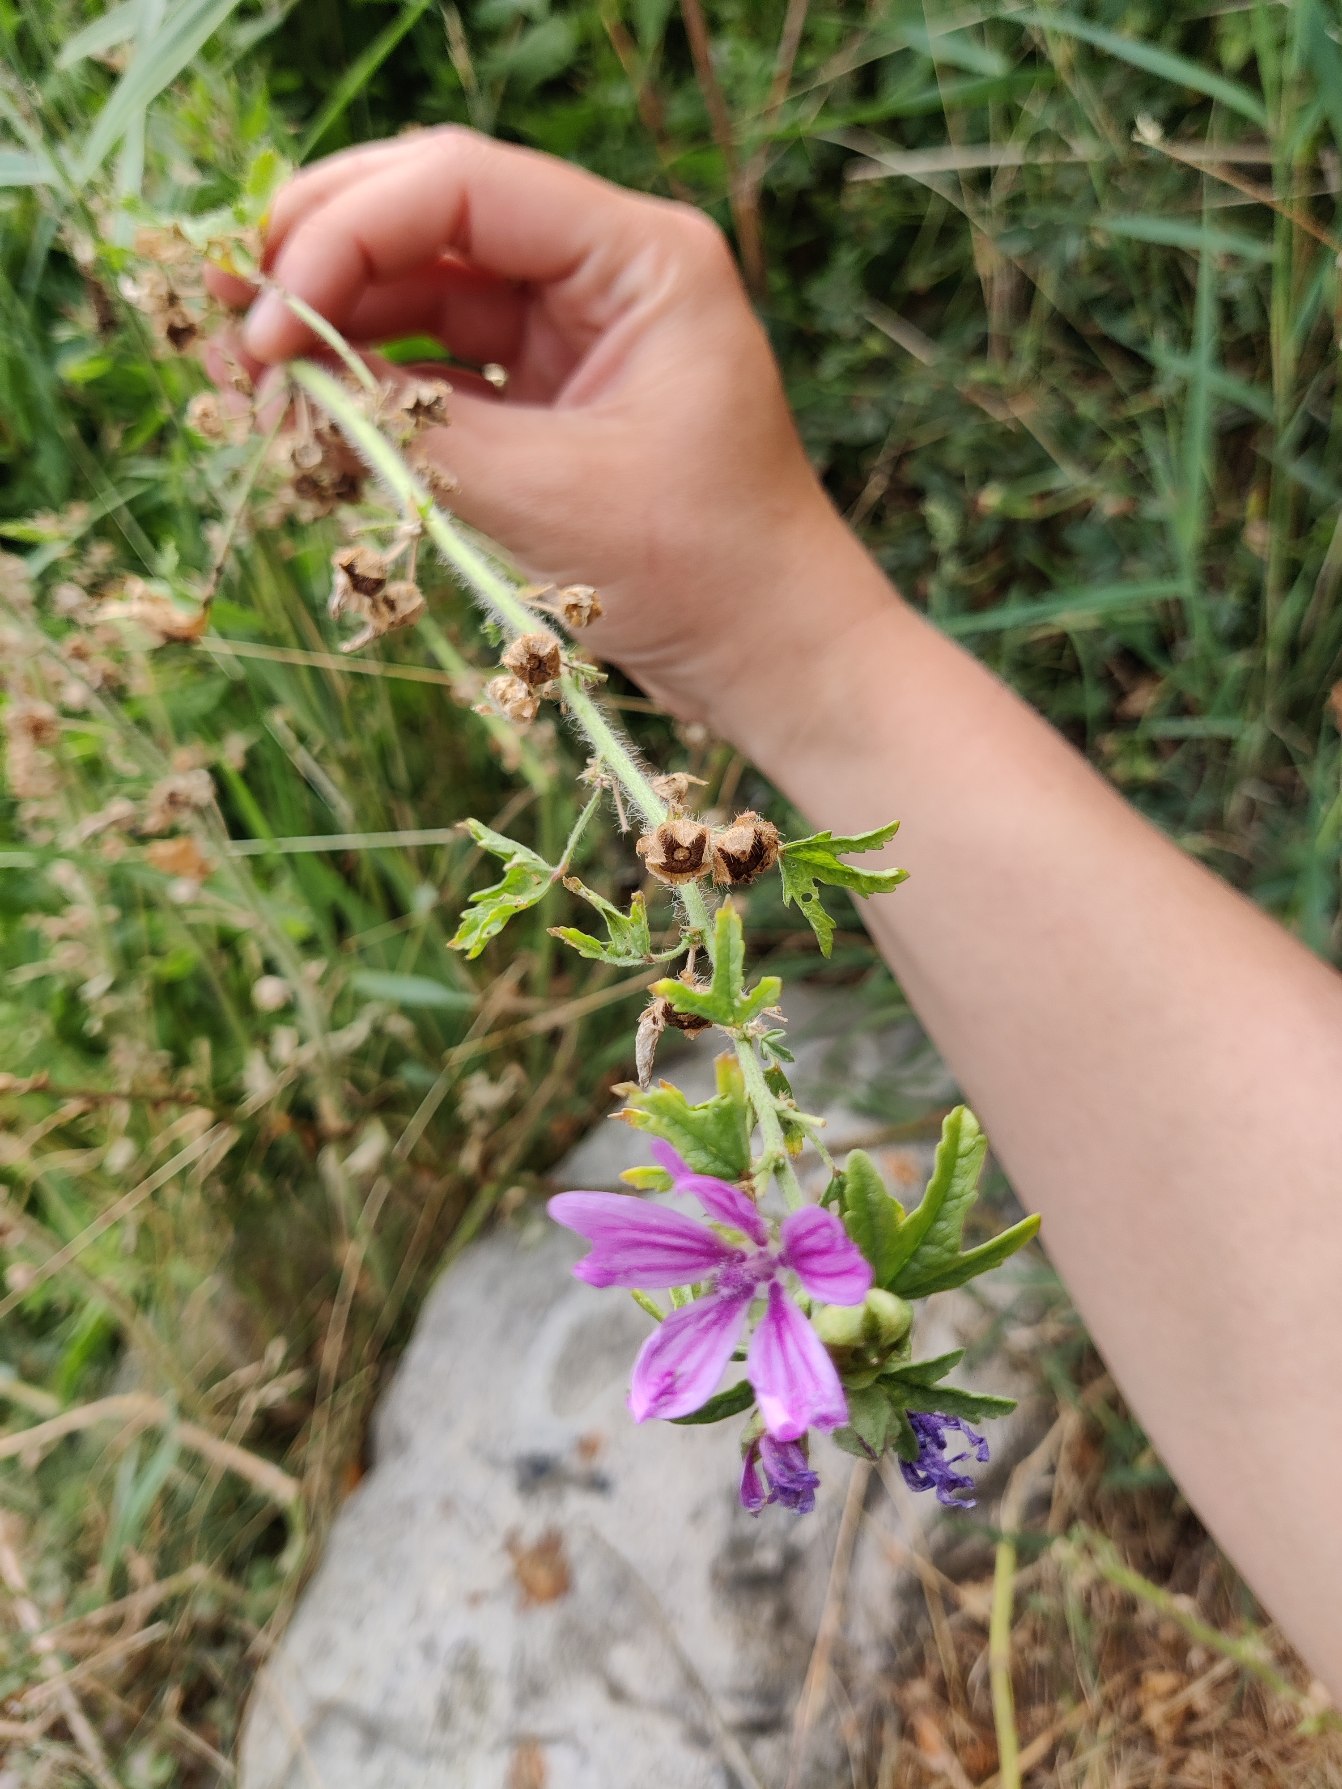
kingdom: Plantae
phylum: Tracheophyta
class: Magnoliopsida
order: Malvales
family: Malvaceae
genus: Malva
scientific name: Malva sylvestris
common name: Almindelig katost
